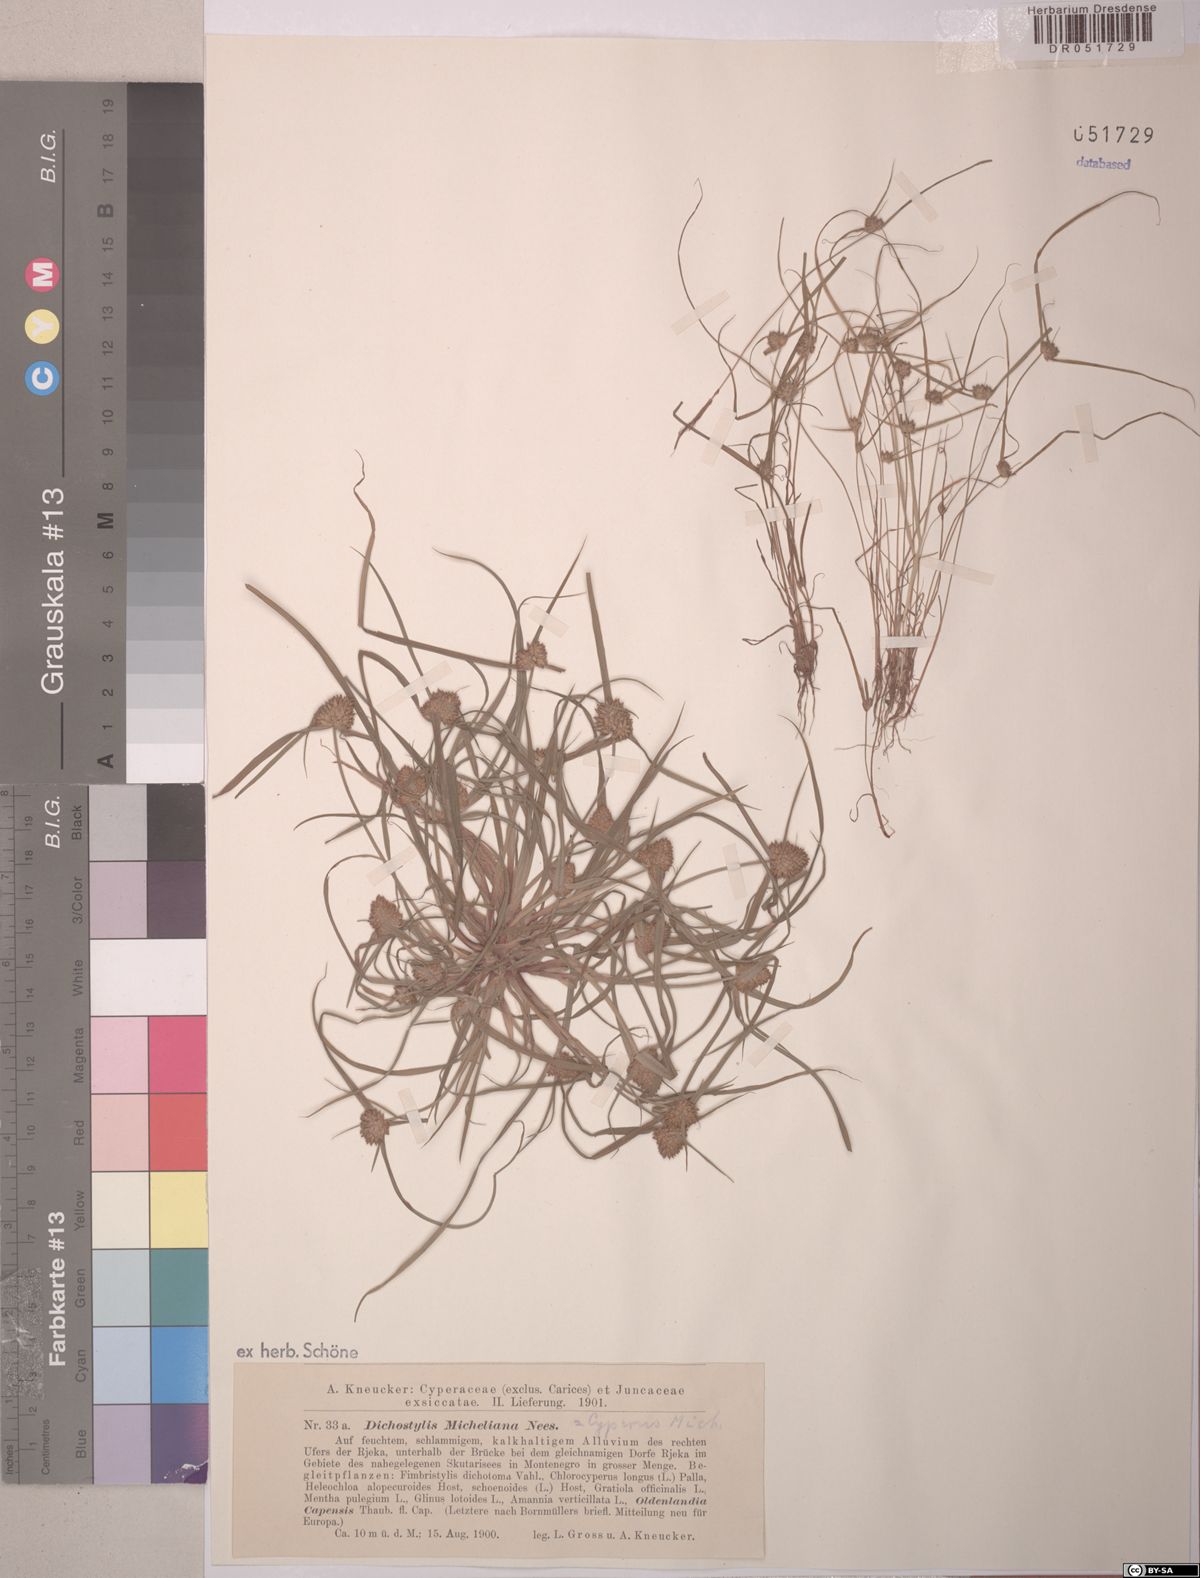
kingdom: Plantae
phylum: Tracheophyta
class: Liliopsida
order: Poales
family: Cyperaceae
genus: Cyperus
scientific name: Cyperus michelianus
